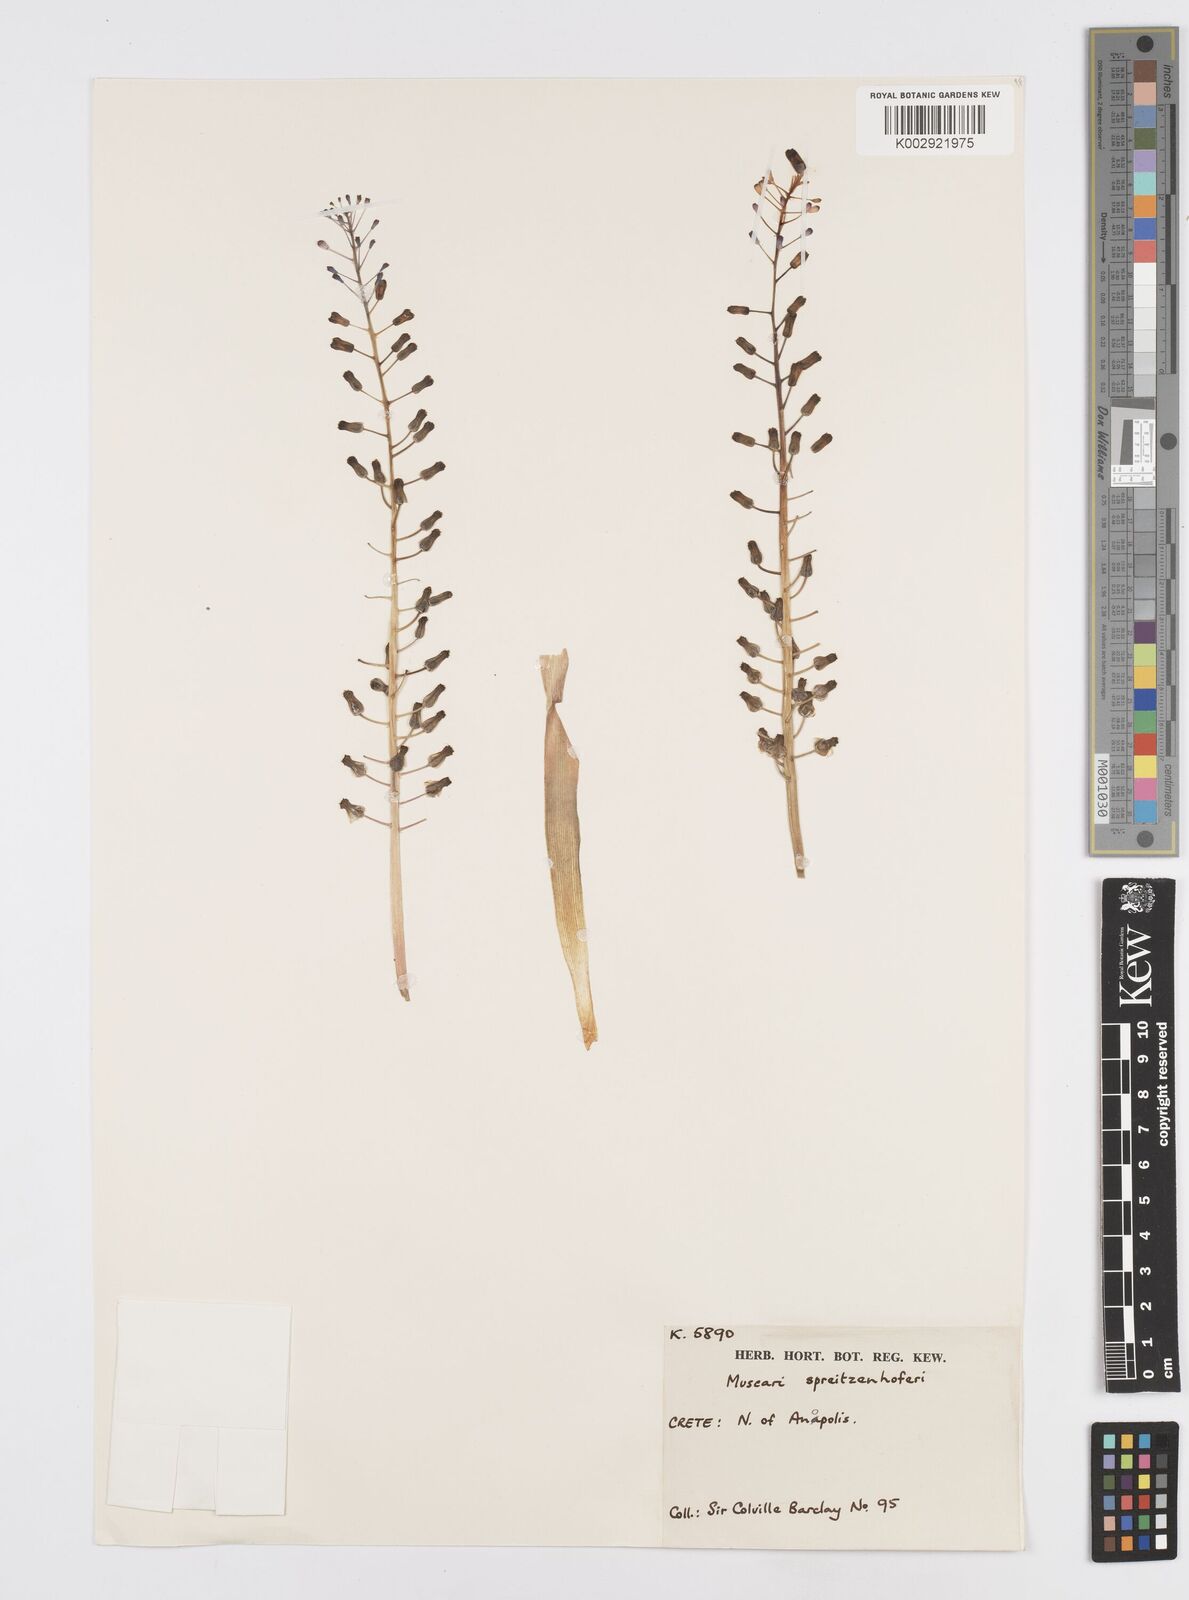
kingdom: Plantae
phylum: Tracheophyta
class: Liliopsida
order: Asparagales
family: Asparagaceae
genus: Muscari
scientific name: Muscari spreitzenhoferi
